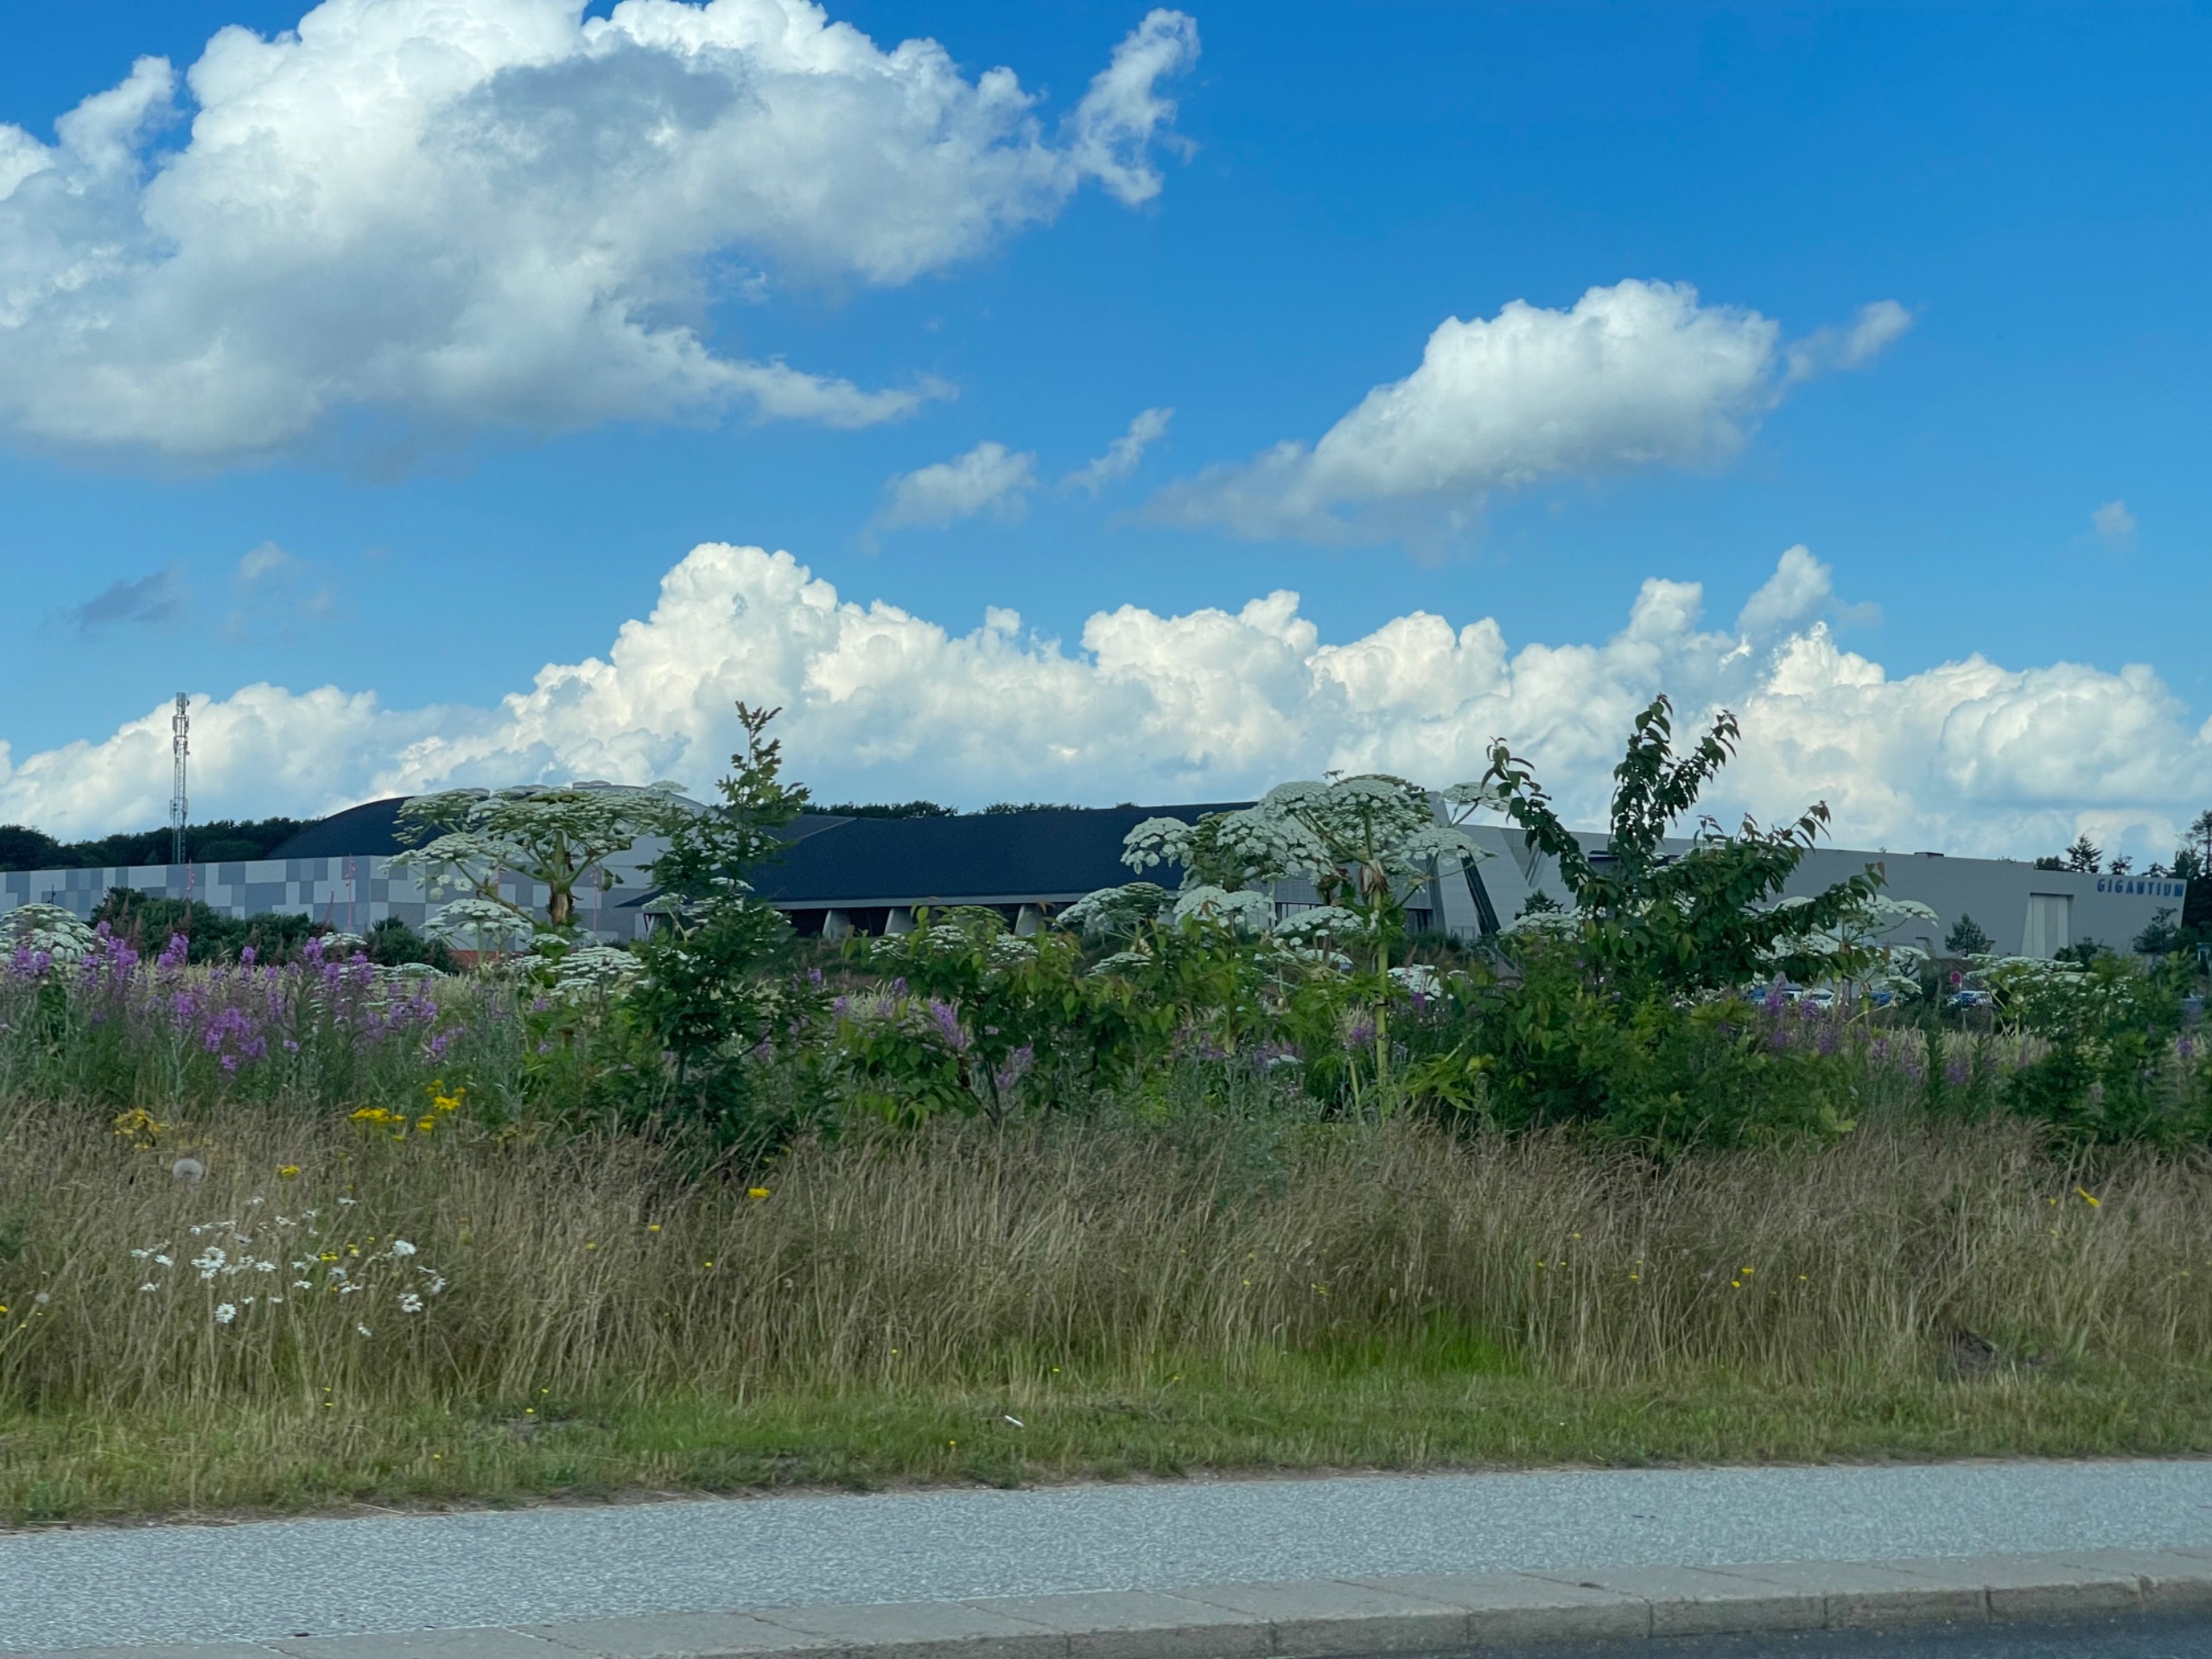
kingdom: Plantae
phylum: Tracheophyta
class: Magnoliopsida
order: Apiales
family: Apiaceae
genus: Heracleum
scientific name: Heracleum mantegazzianum
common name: Kæmpe-bjørneklo
